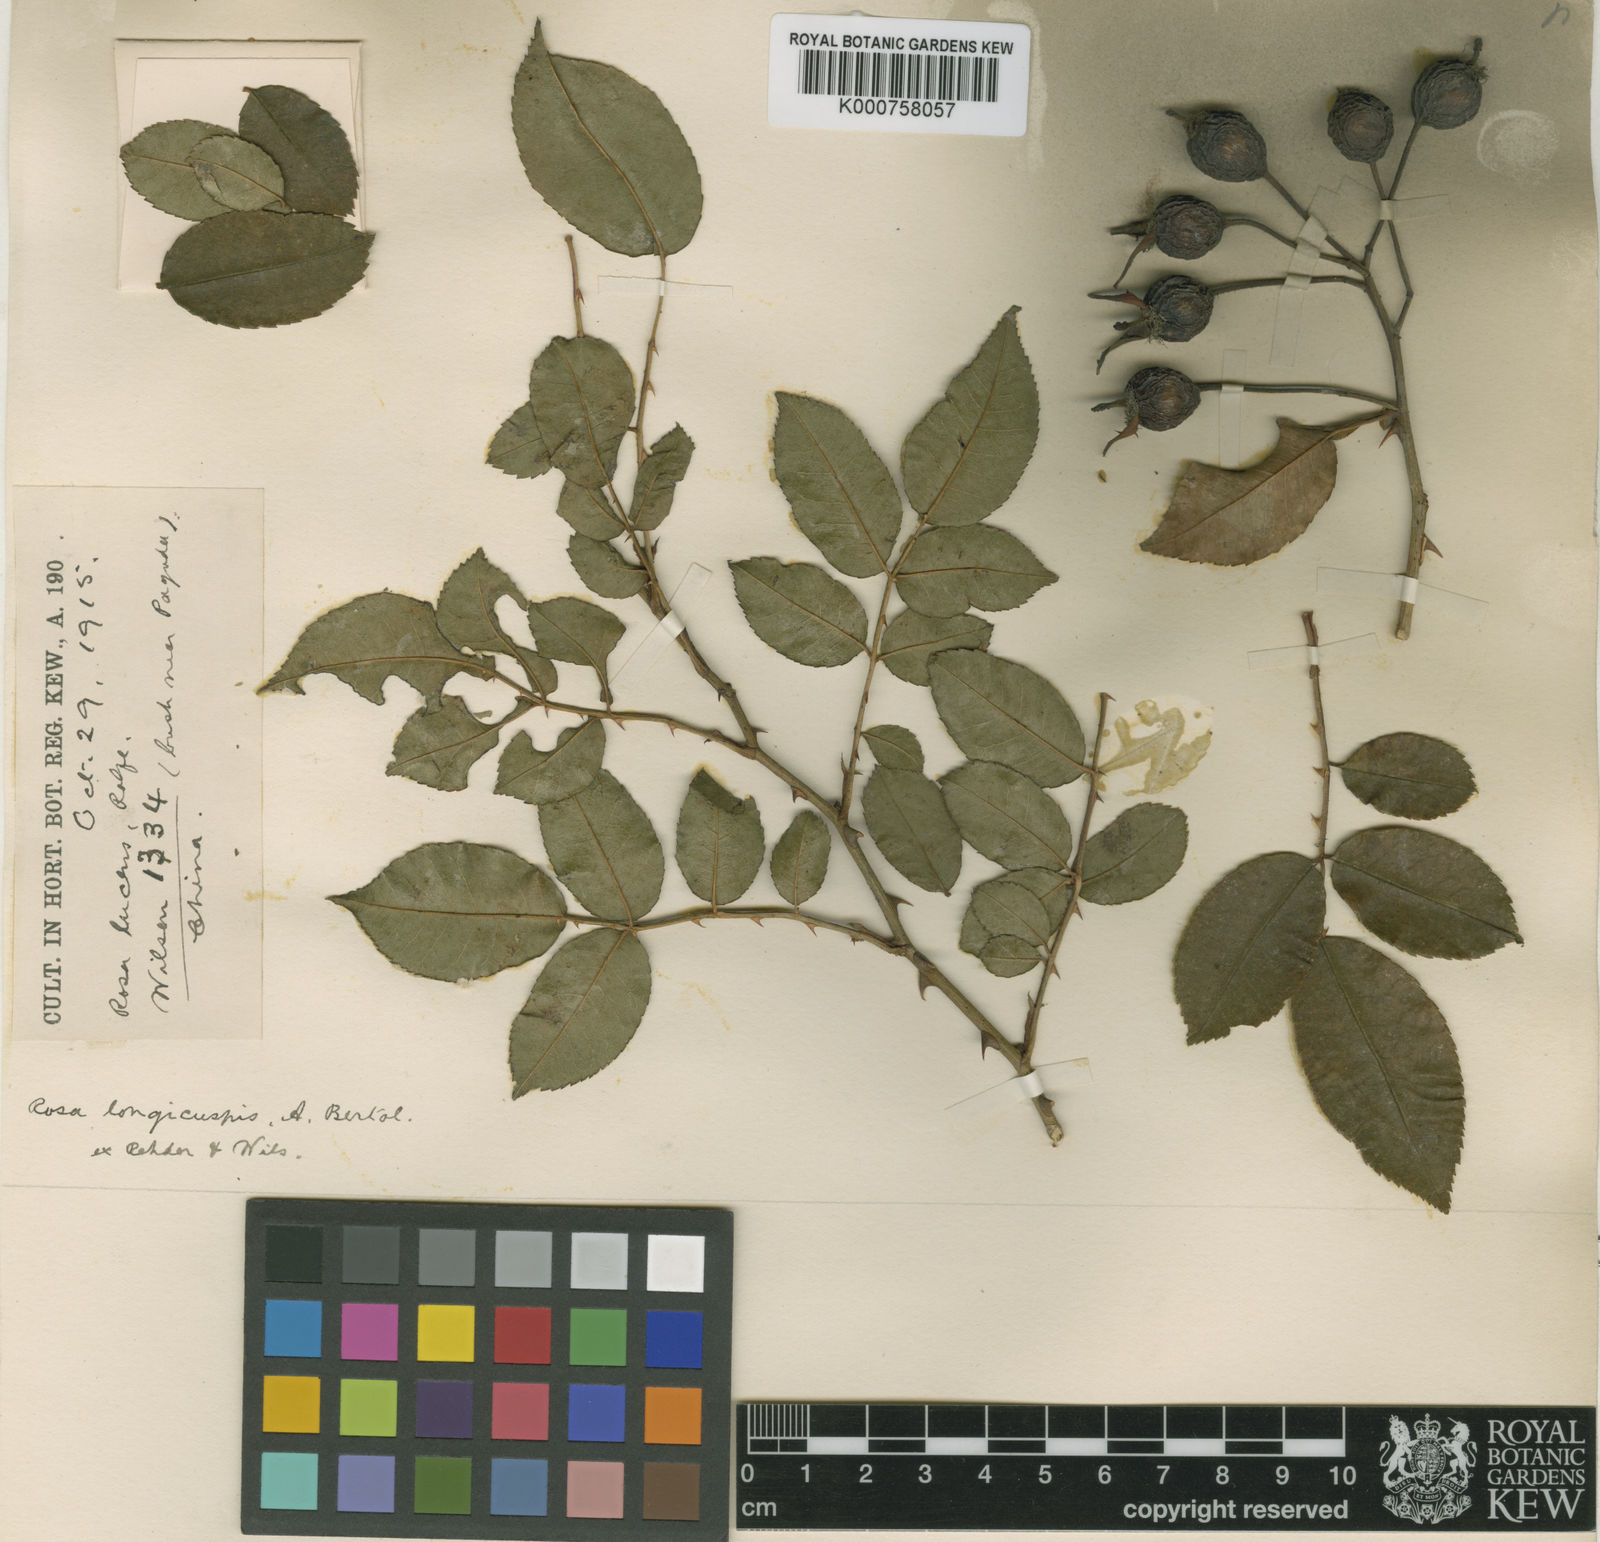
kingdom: Plantae
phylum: Tracheophyta
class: Magnoliopsida
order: Rosales
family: Rosaceae
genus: Rosa
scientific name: Rosa longicuspis
